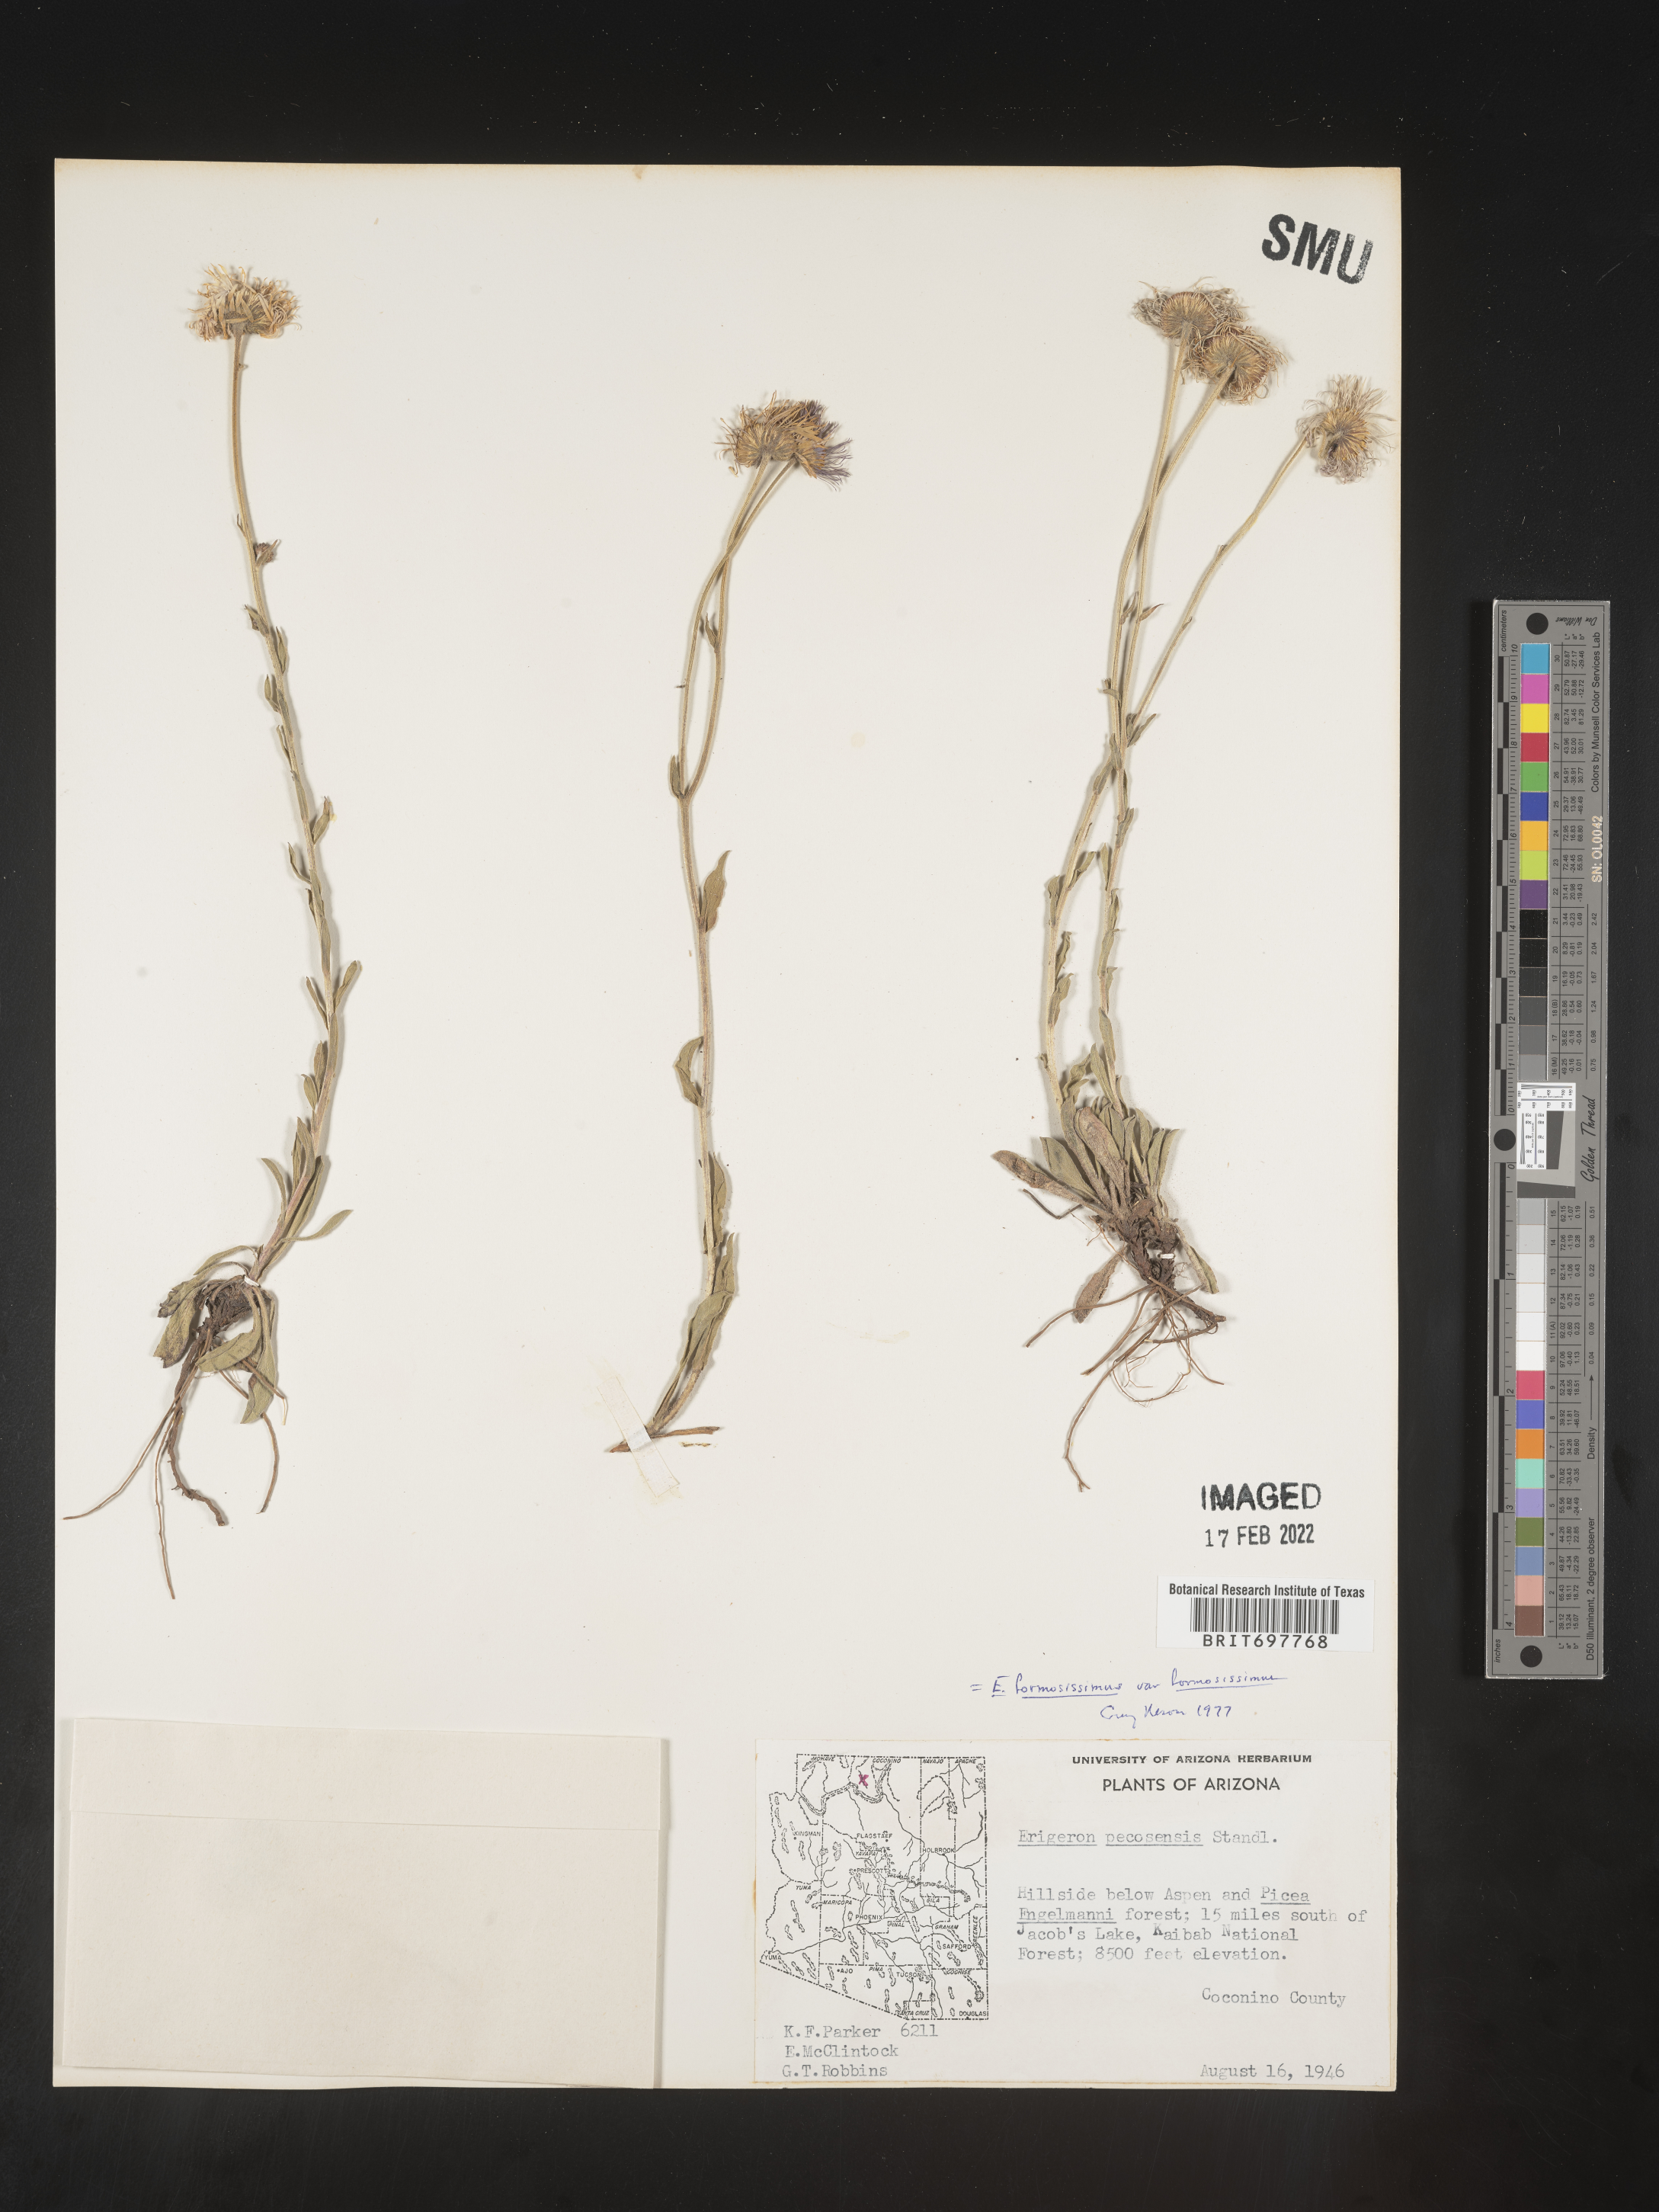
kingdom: Plantae
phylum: Tracheophyta
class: Magnoliopsida
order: Asterales
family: Asteraceae
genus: Erigeron
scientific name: Erigeron formosissimus
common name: Beautiful fleabane
